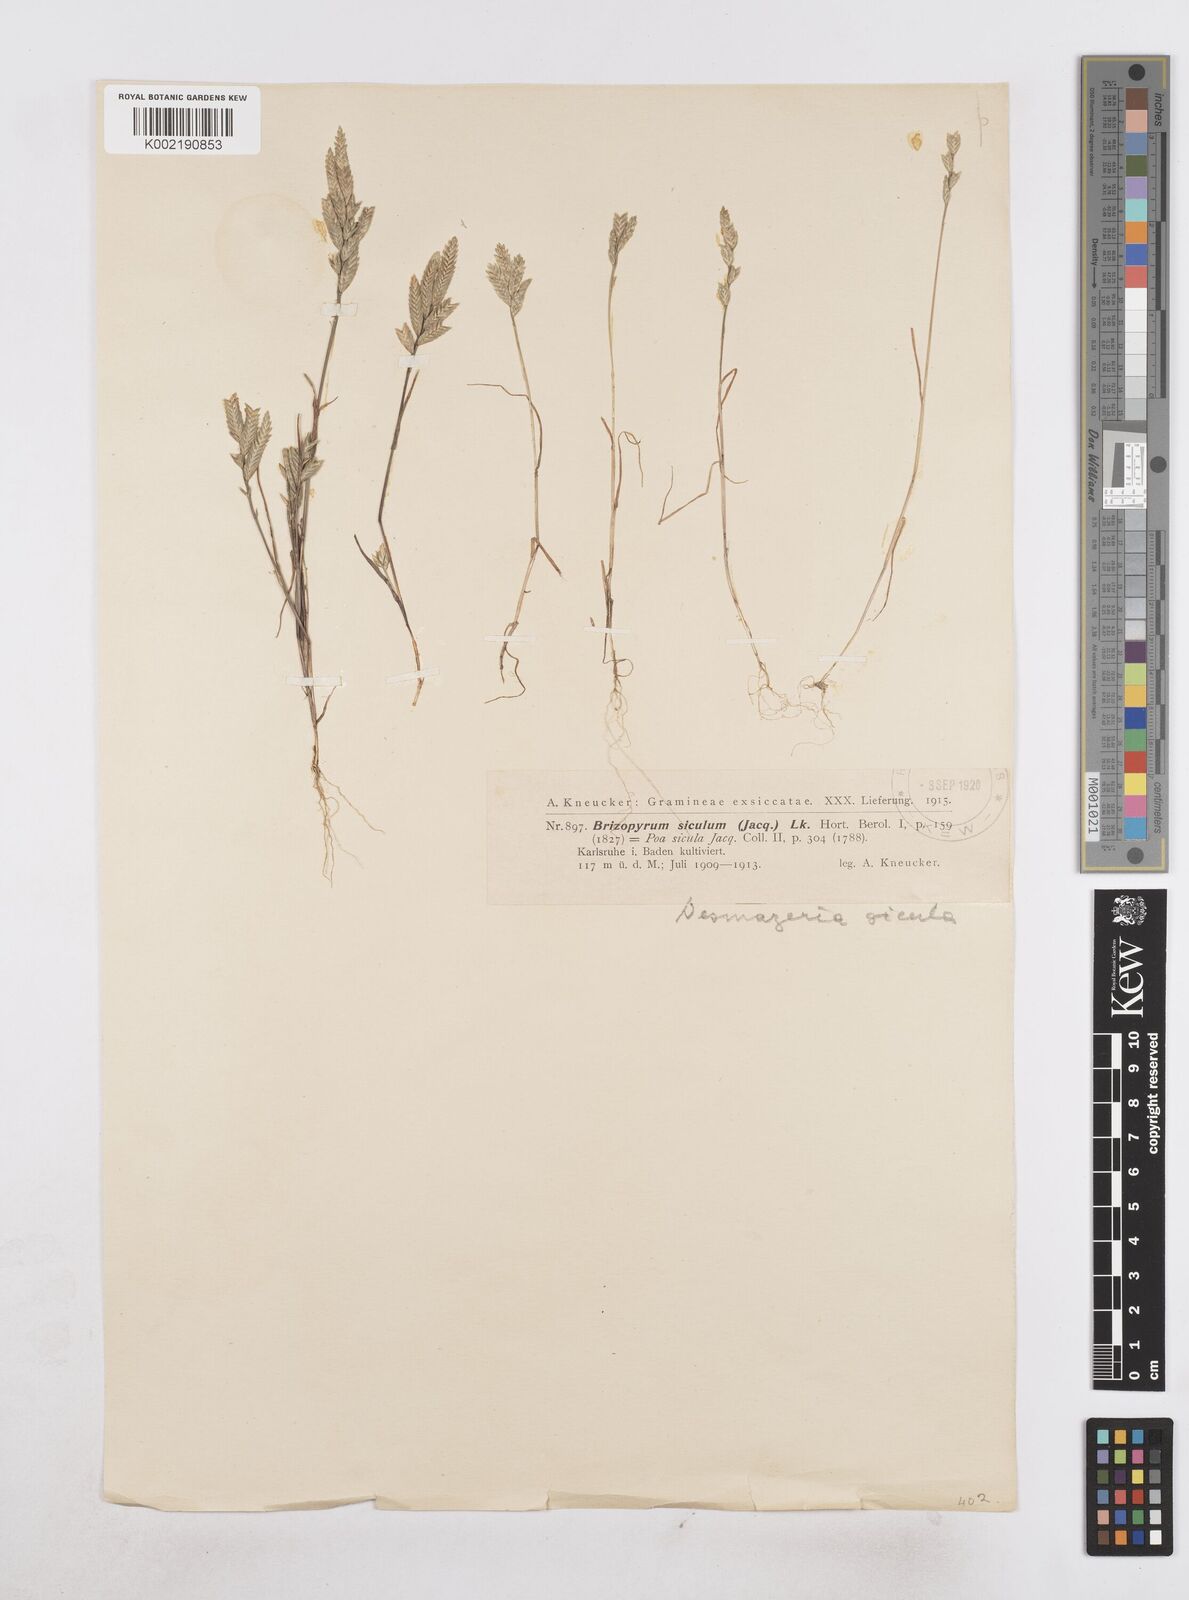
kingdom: Plantae
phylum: Tracheophyta
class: Liliopsida
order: Poales
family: Poaceae
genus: Desmazeria
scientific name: Desmazeria sicula
